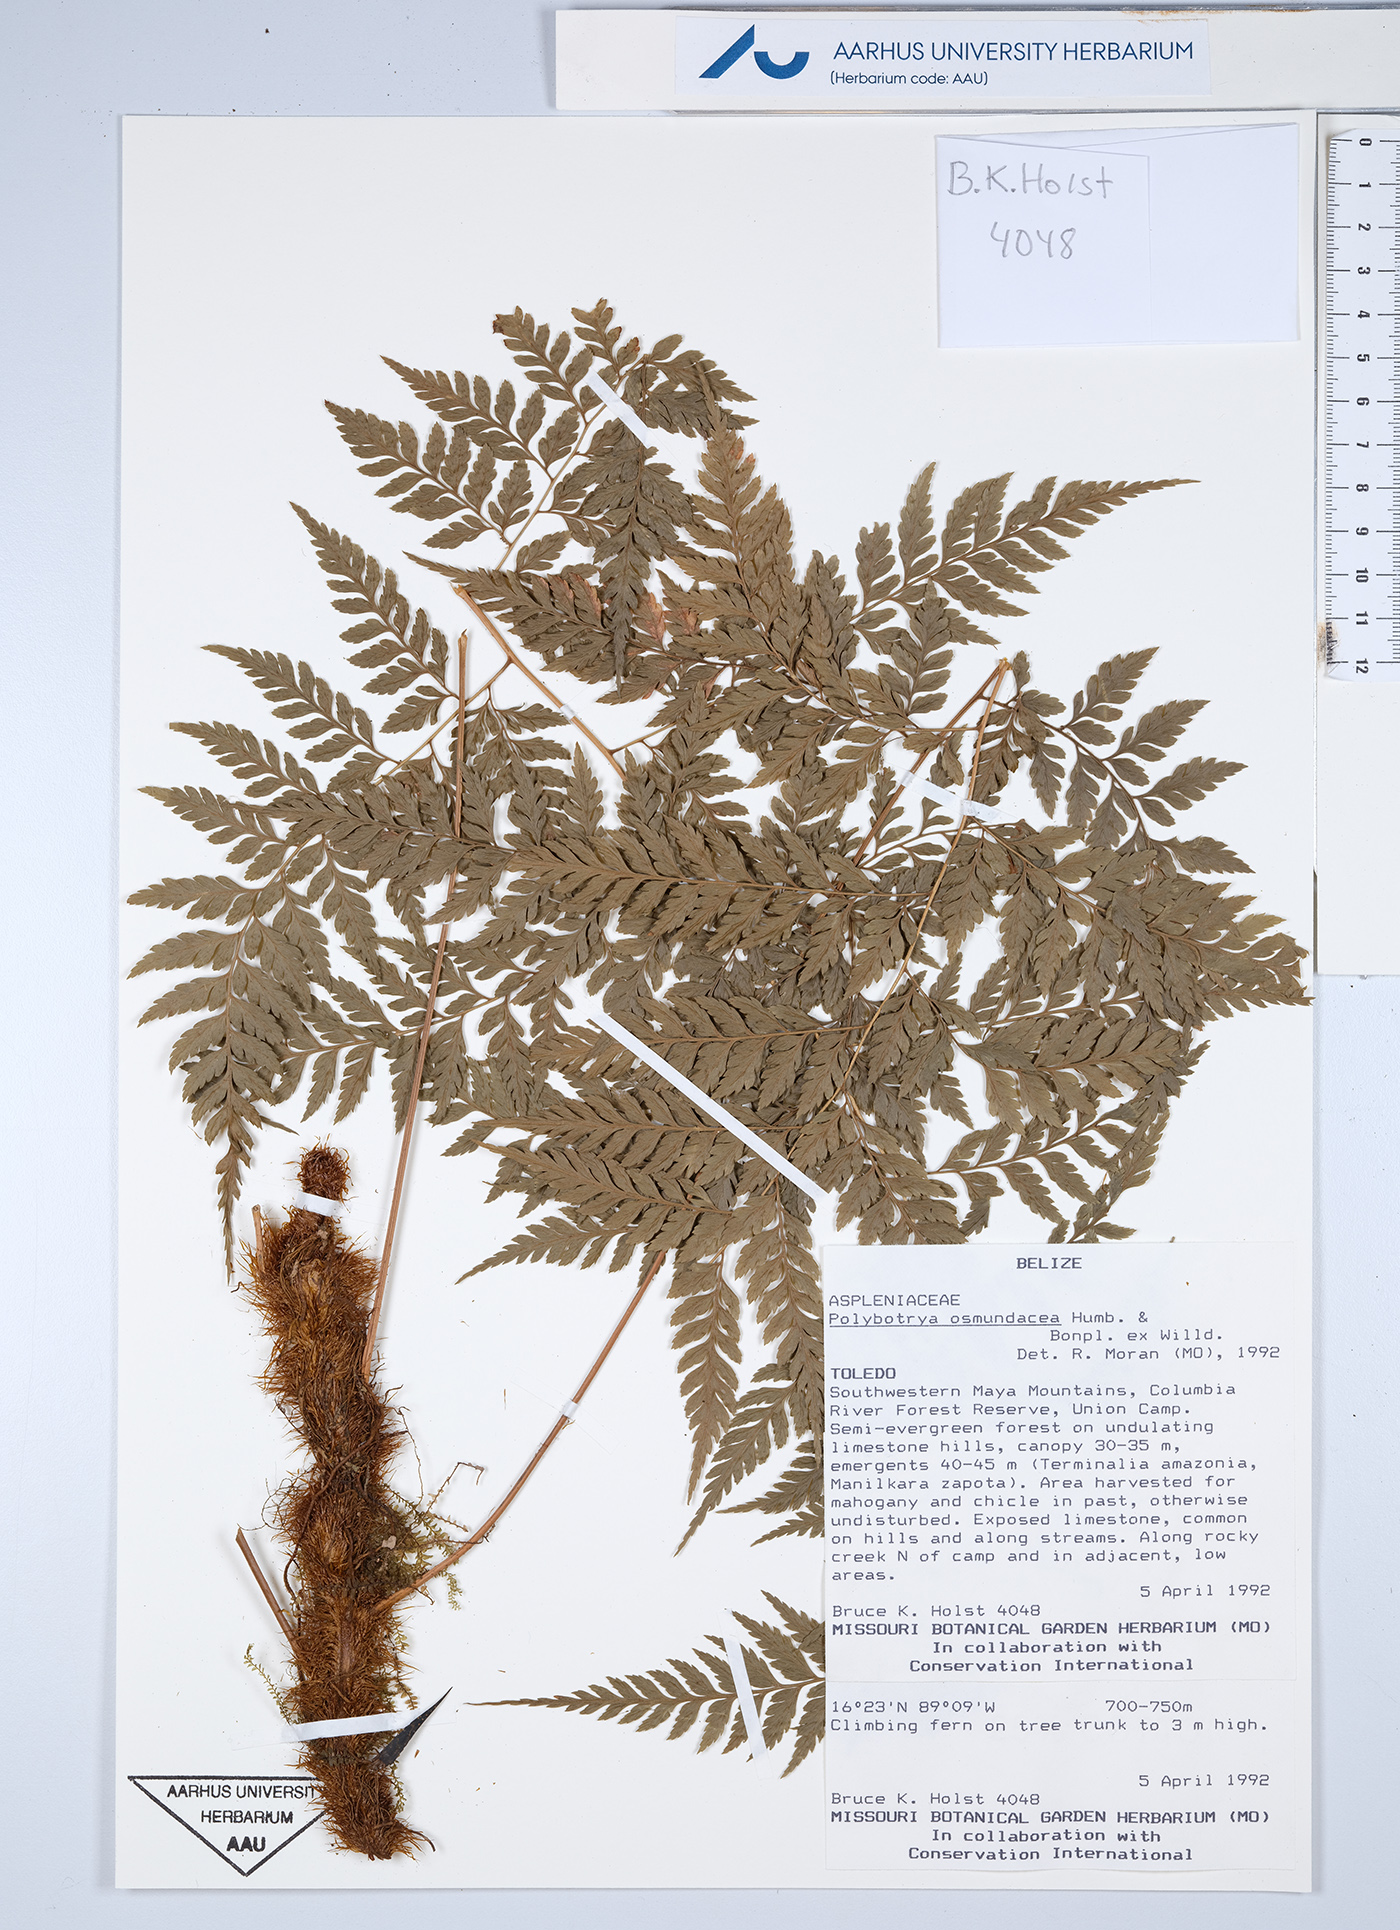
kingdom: Plantae
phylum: Tracheophyta
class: Polypodiopsida
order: Polypodiales
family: Dryopteridaceae
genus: Polybotrya
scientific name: Polybotrya osmundacea
